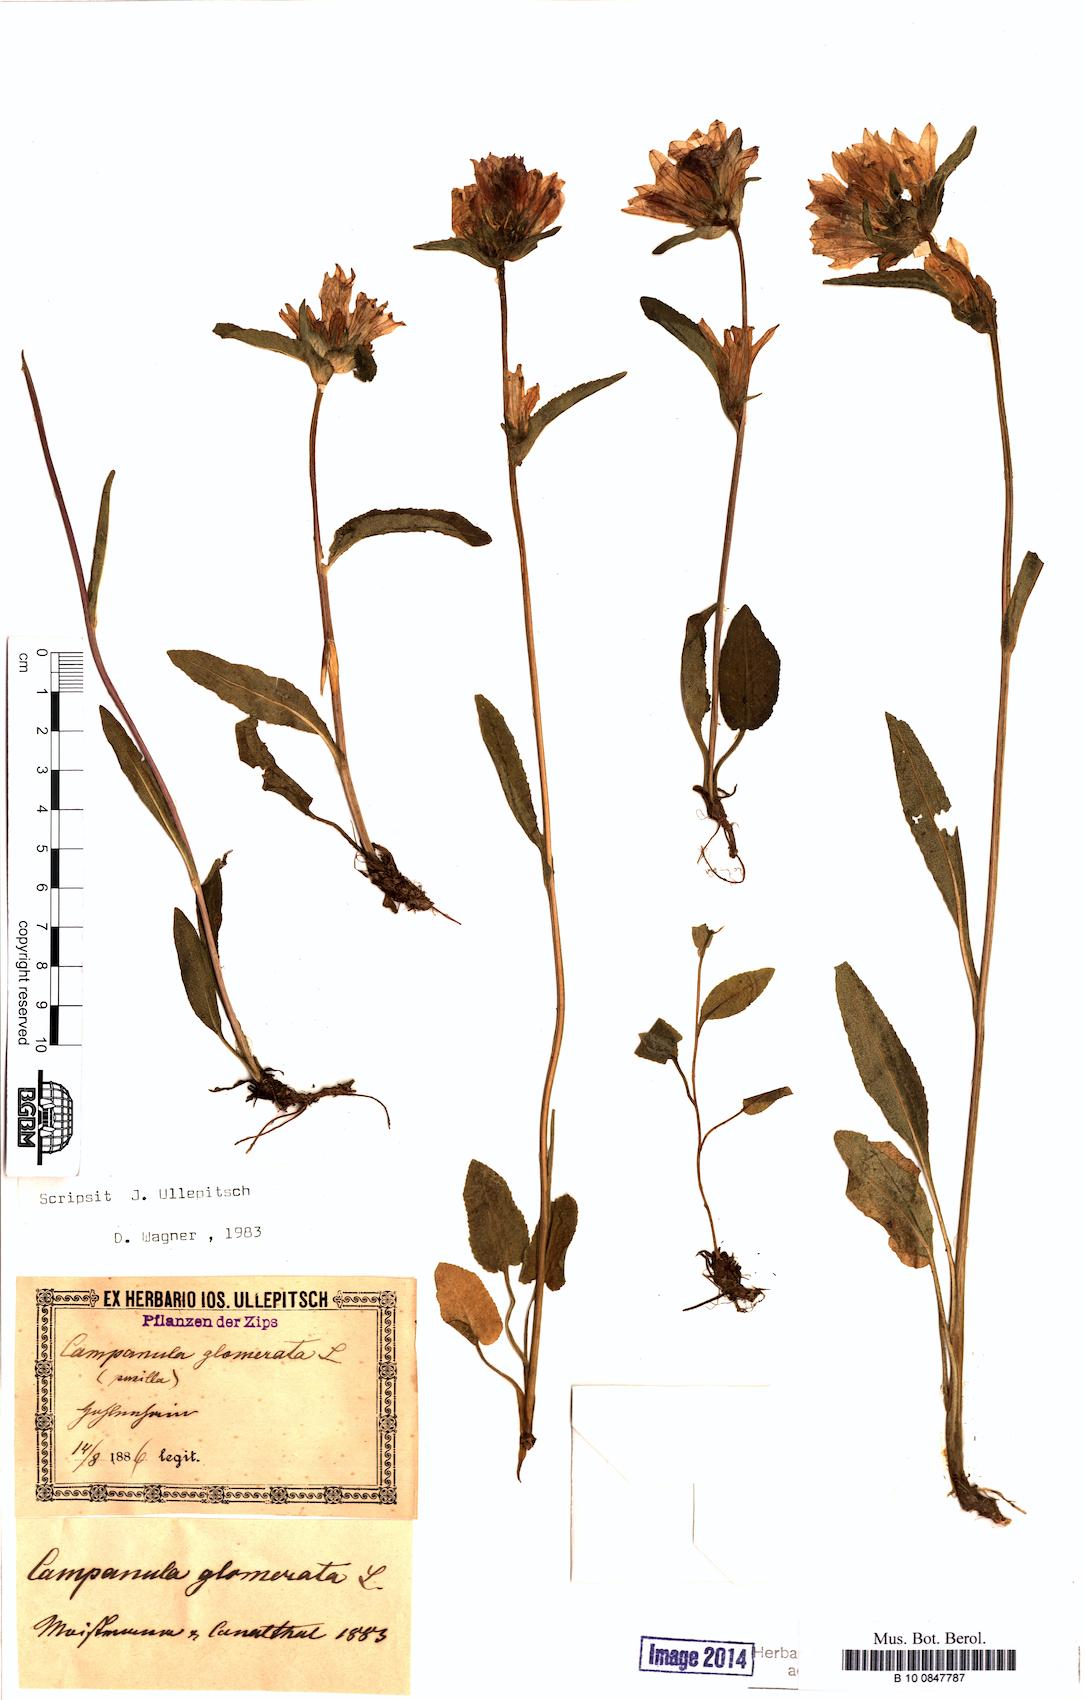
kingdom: Plantae
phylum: Tracheophyta
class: Magnoliopsida
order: Asterales
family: Campanulaceae
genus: Campanula
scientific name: Campanula glomerata
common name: Clustered bellflower
